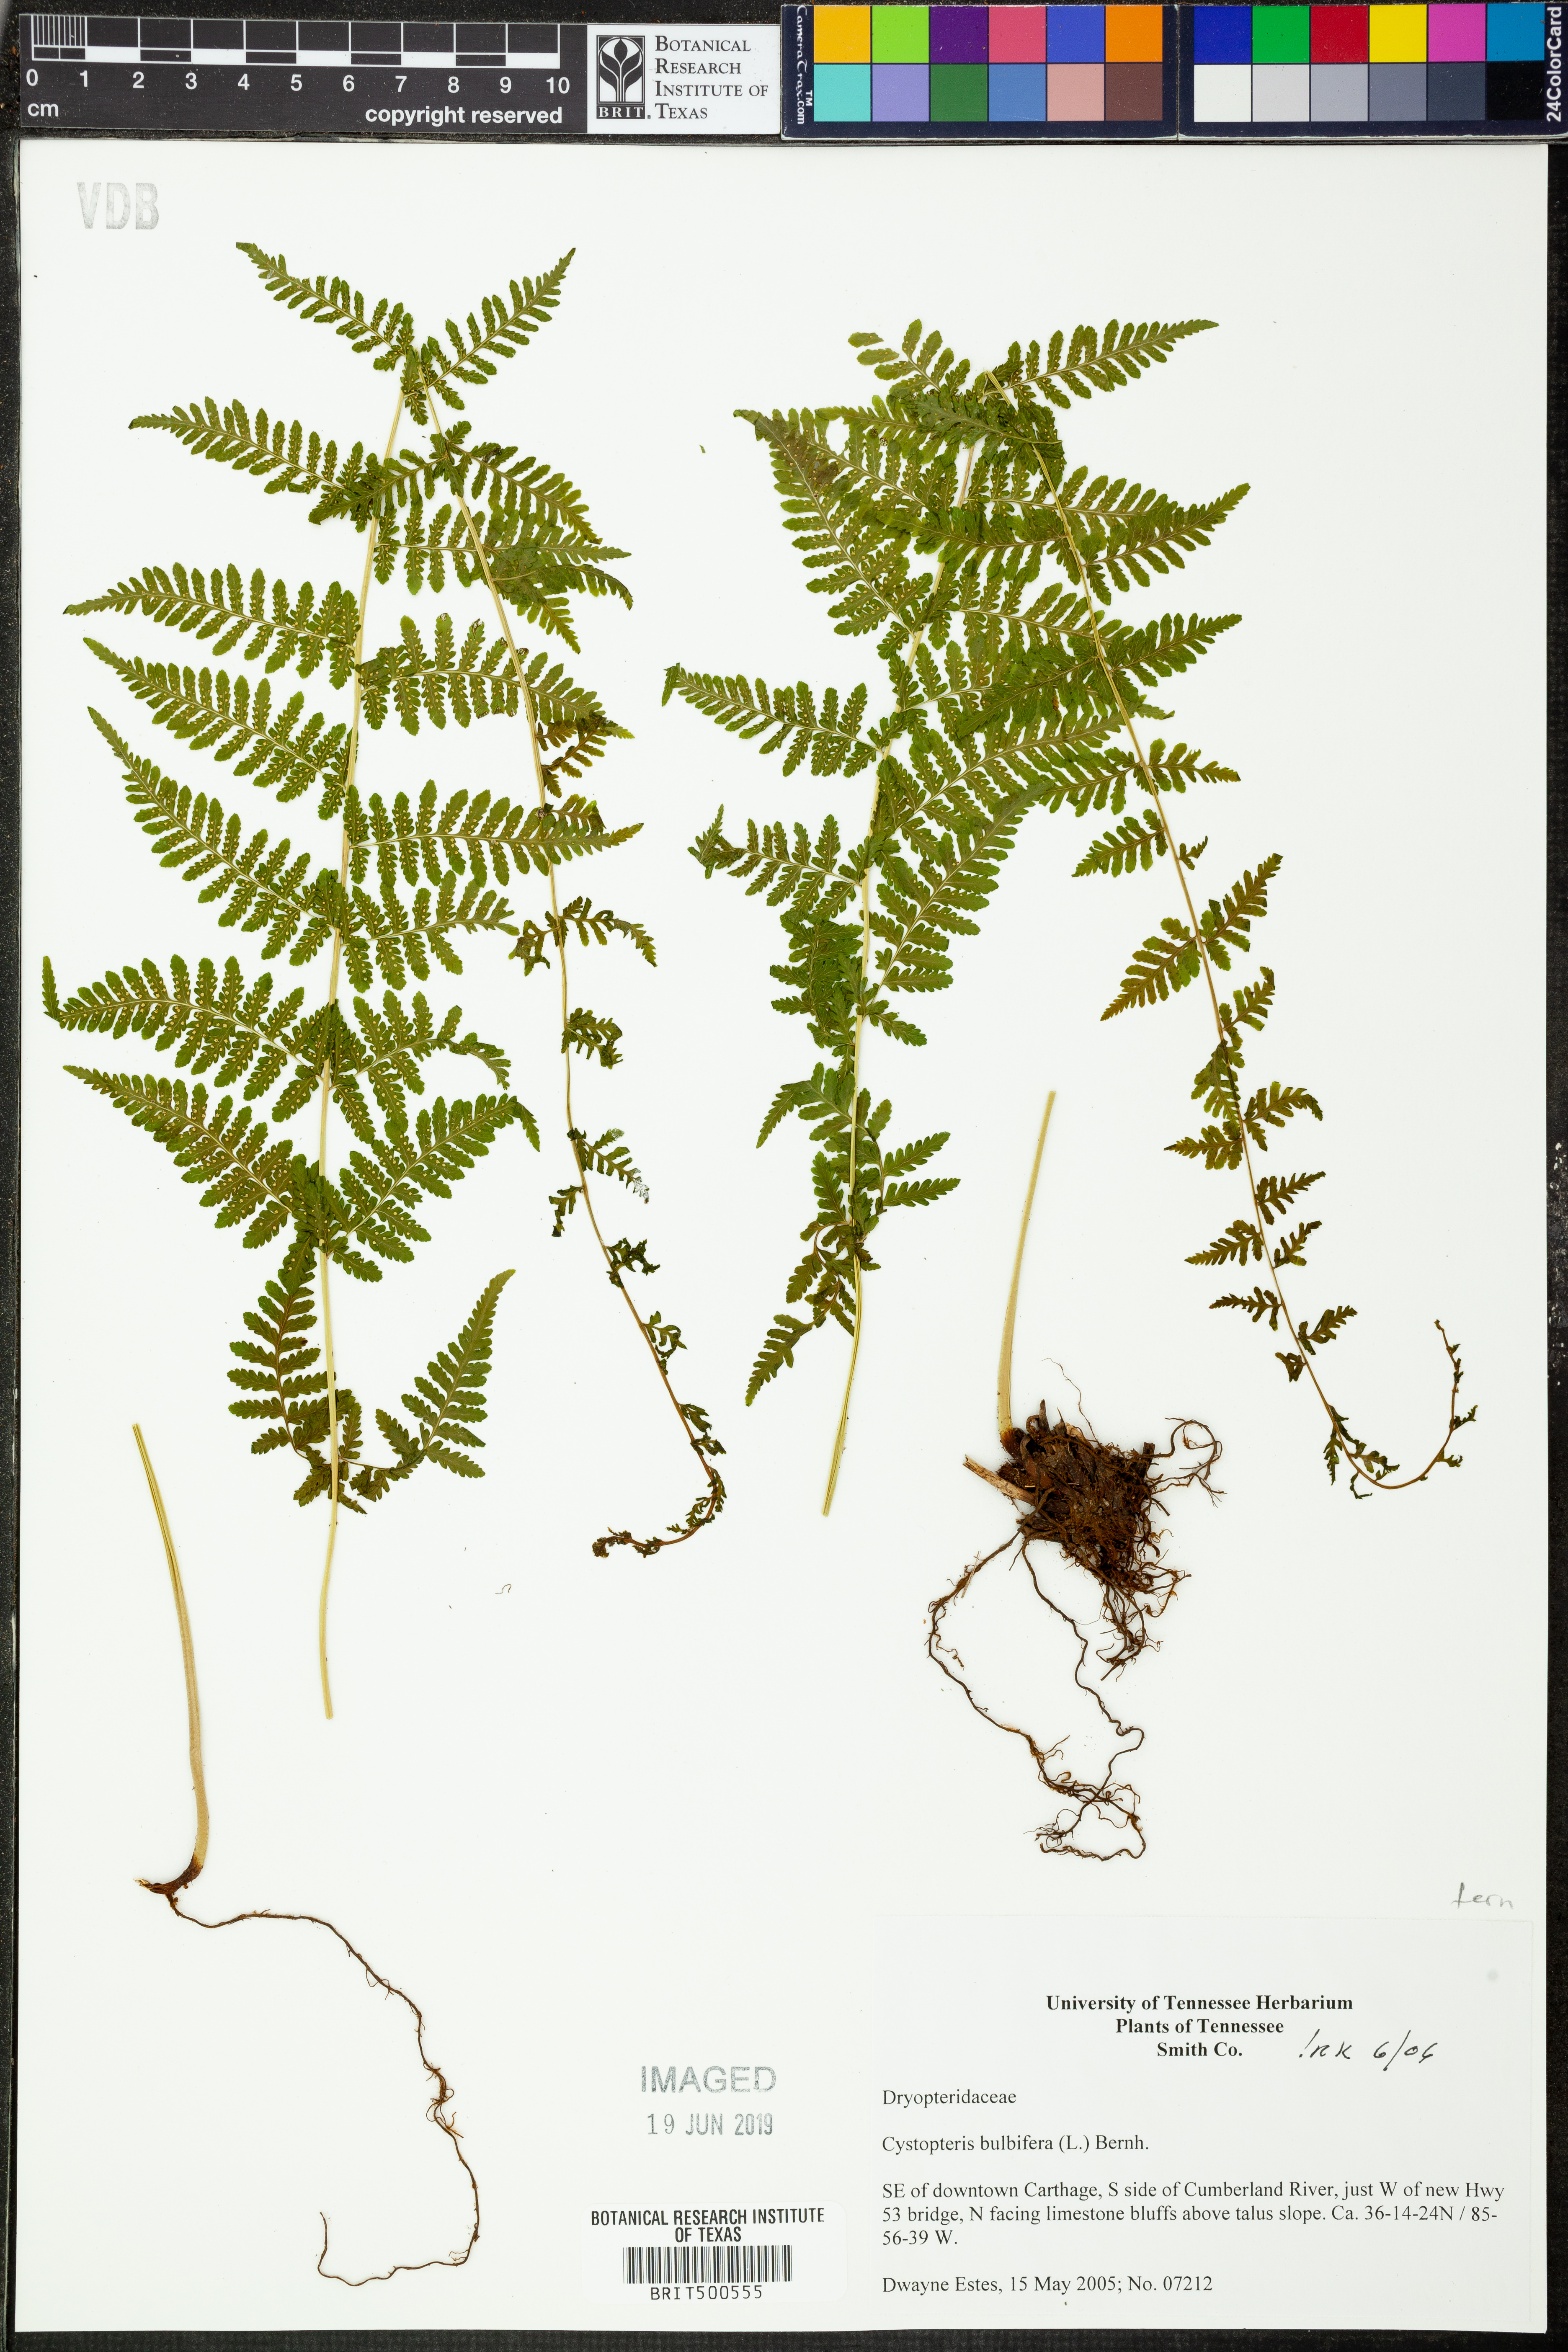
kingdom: Plantae
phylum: Tracheophyta
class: Polypodiopsida
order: Polypodiales
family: Cystopteridaceae
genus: Cystopteris
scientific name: Cystopteris bulbifera
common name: Bulblet bladder fern
